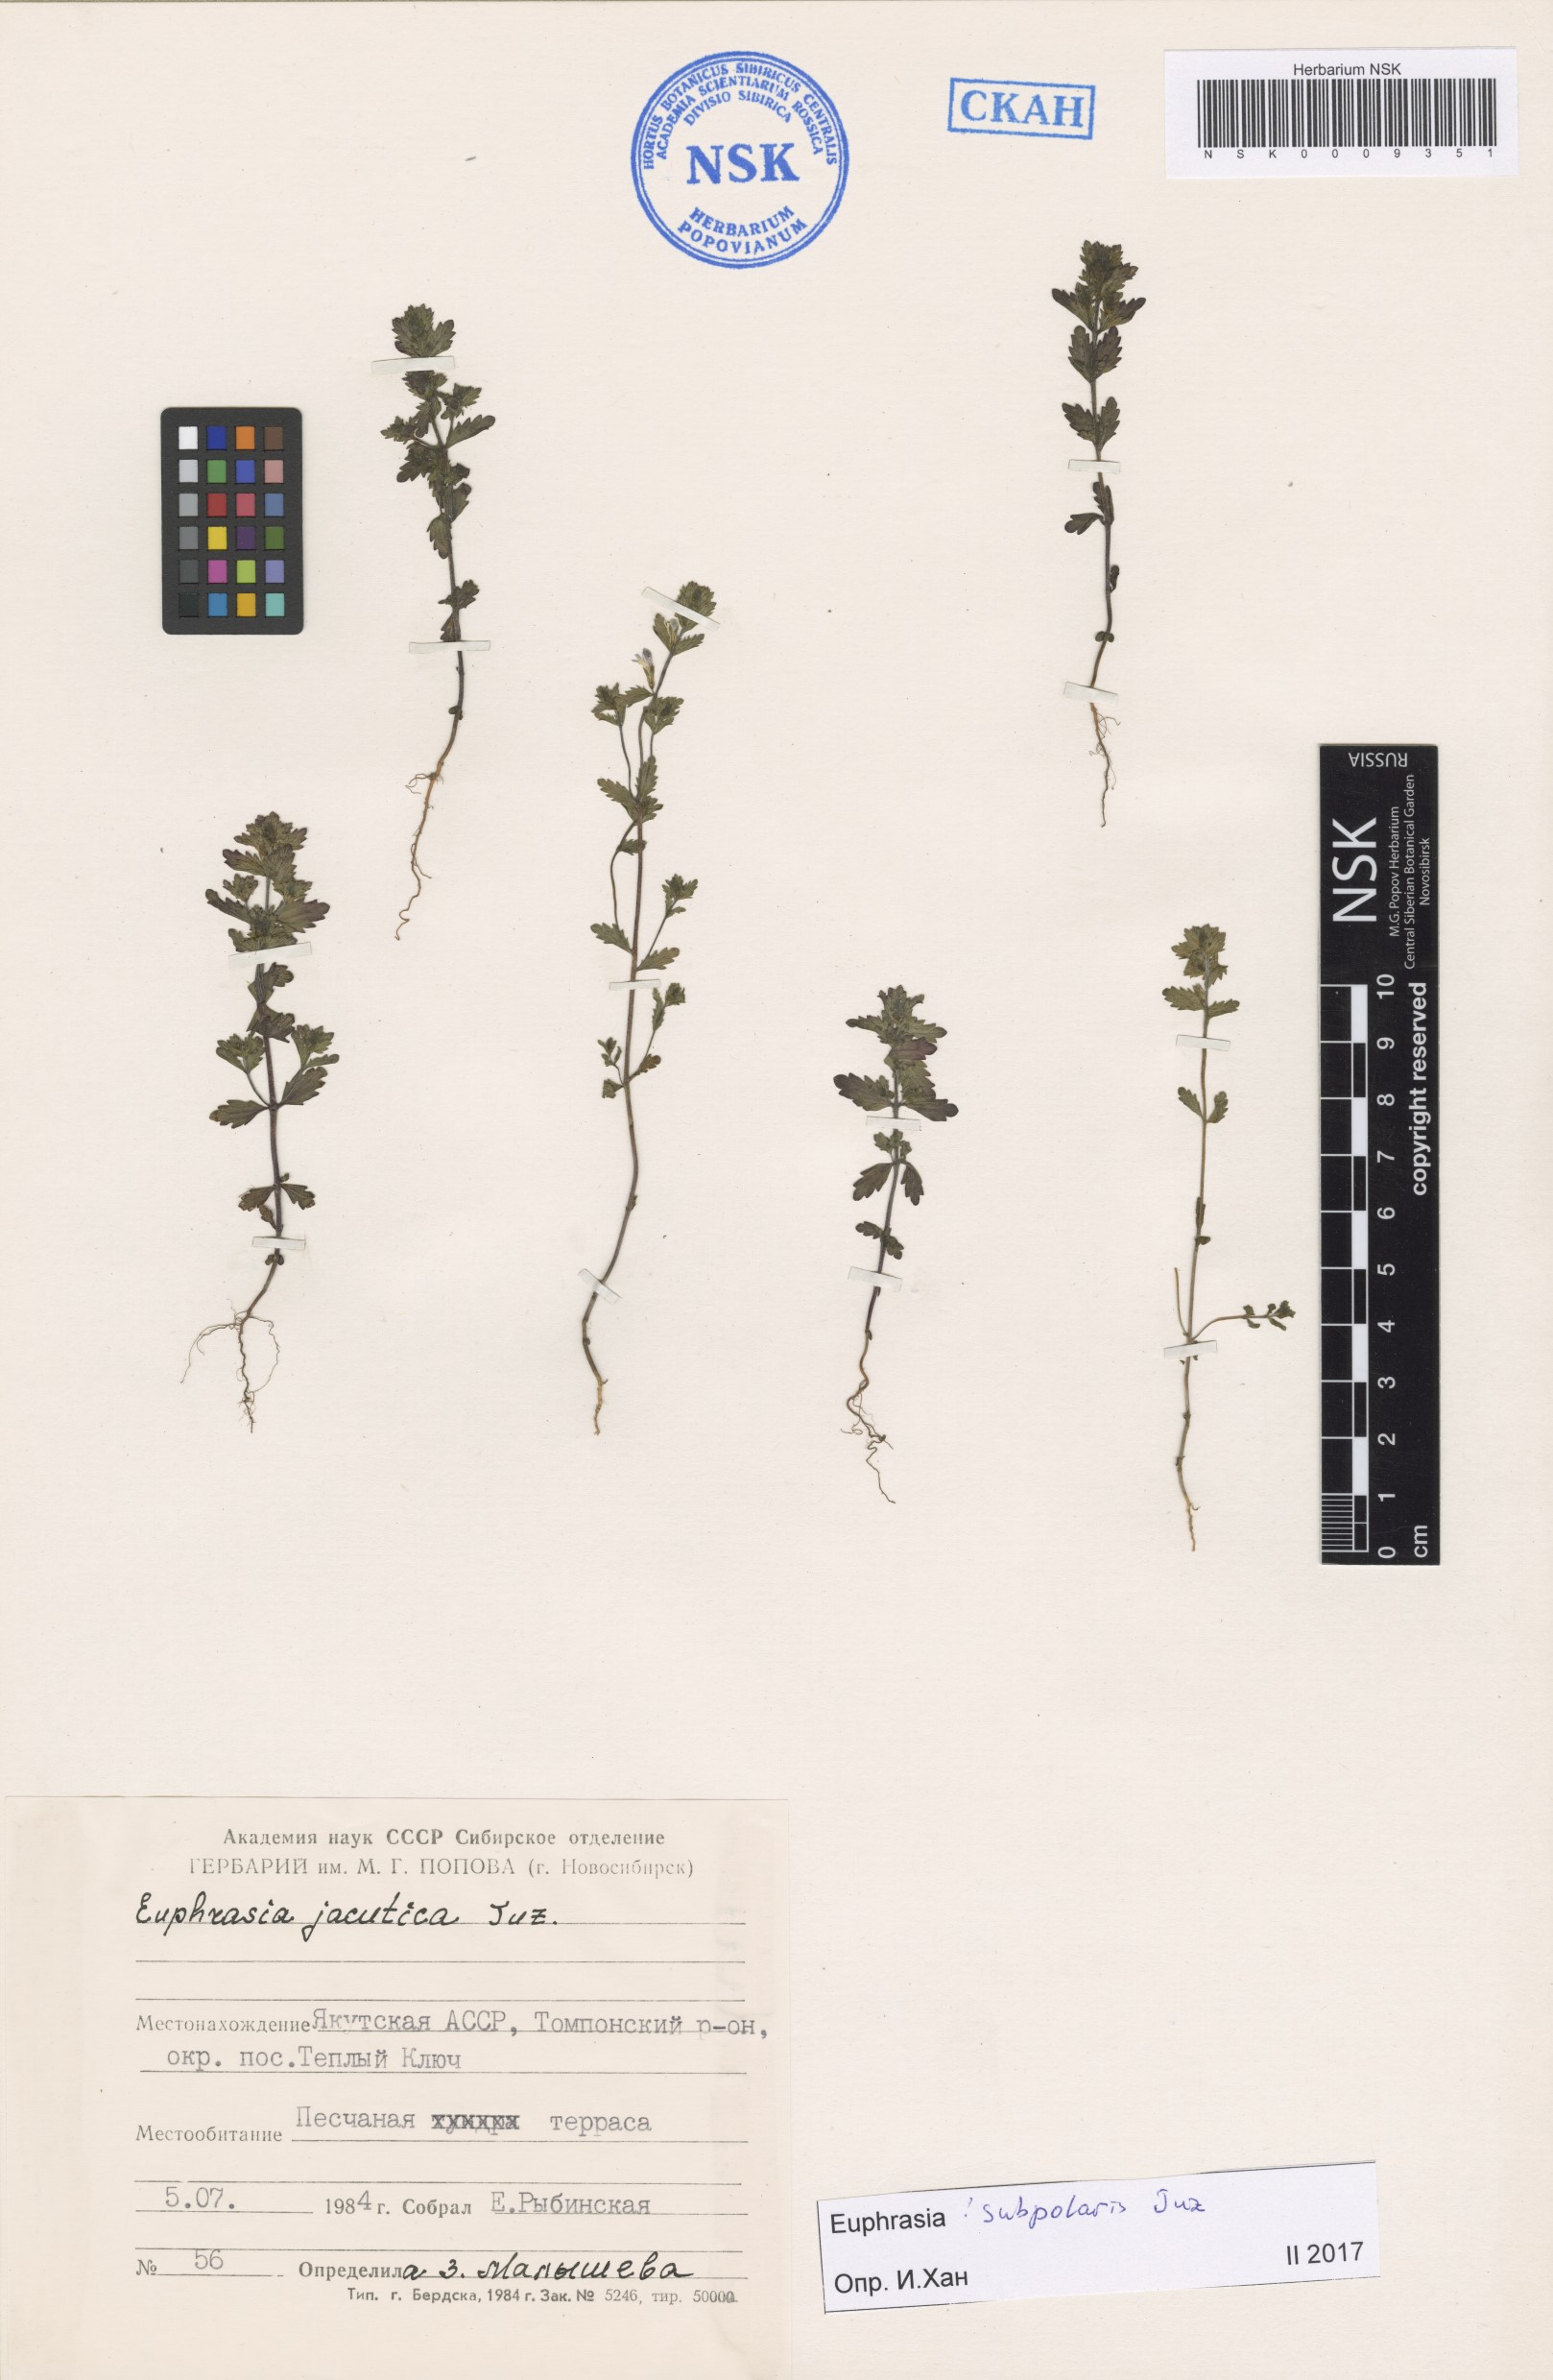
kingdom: Plantae
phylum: Tracheophyta
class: Magnoliopsida
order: Lamiales
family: Orobanchaceae
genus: Euphrasia
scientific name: Euphrasia hyperborea
